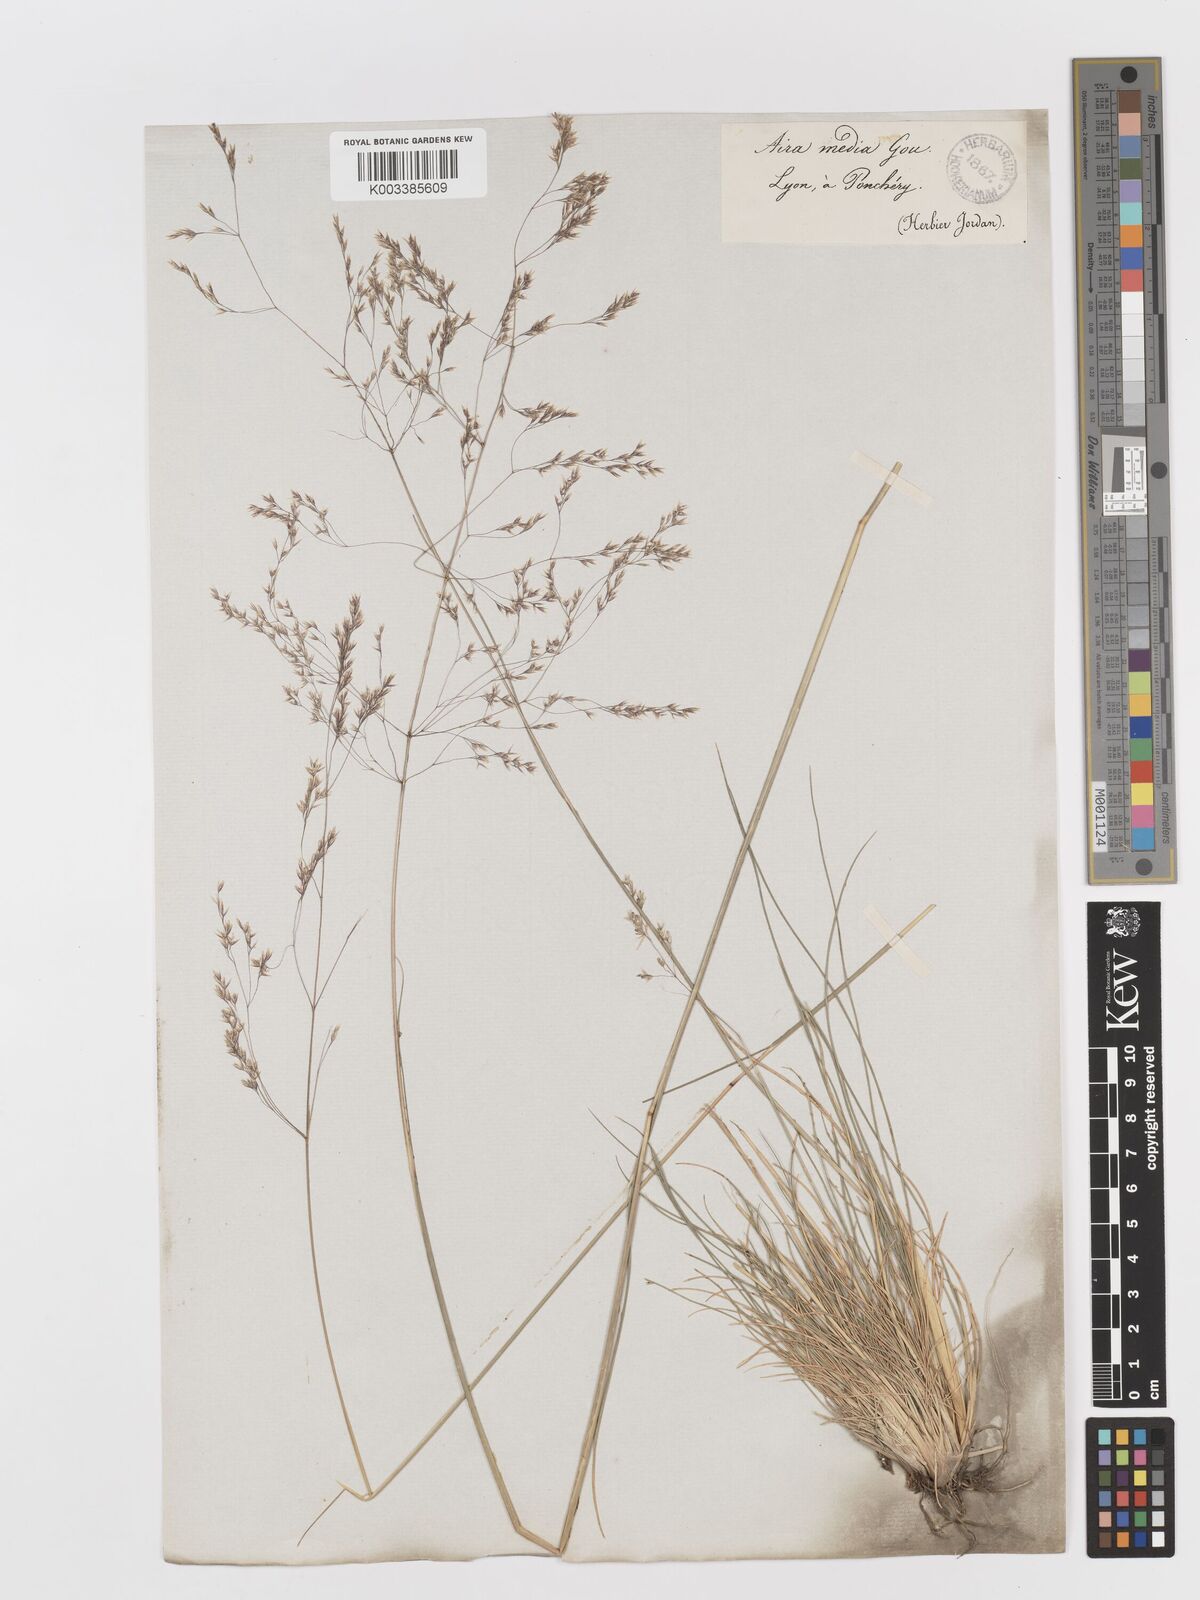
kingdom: Plantae
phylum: Tracheophyta
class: Liliopsida
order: Poales
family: Poaceae
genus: Deschampsia
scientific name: Deschampsia media
